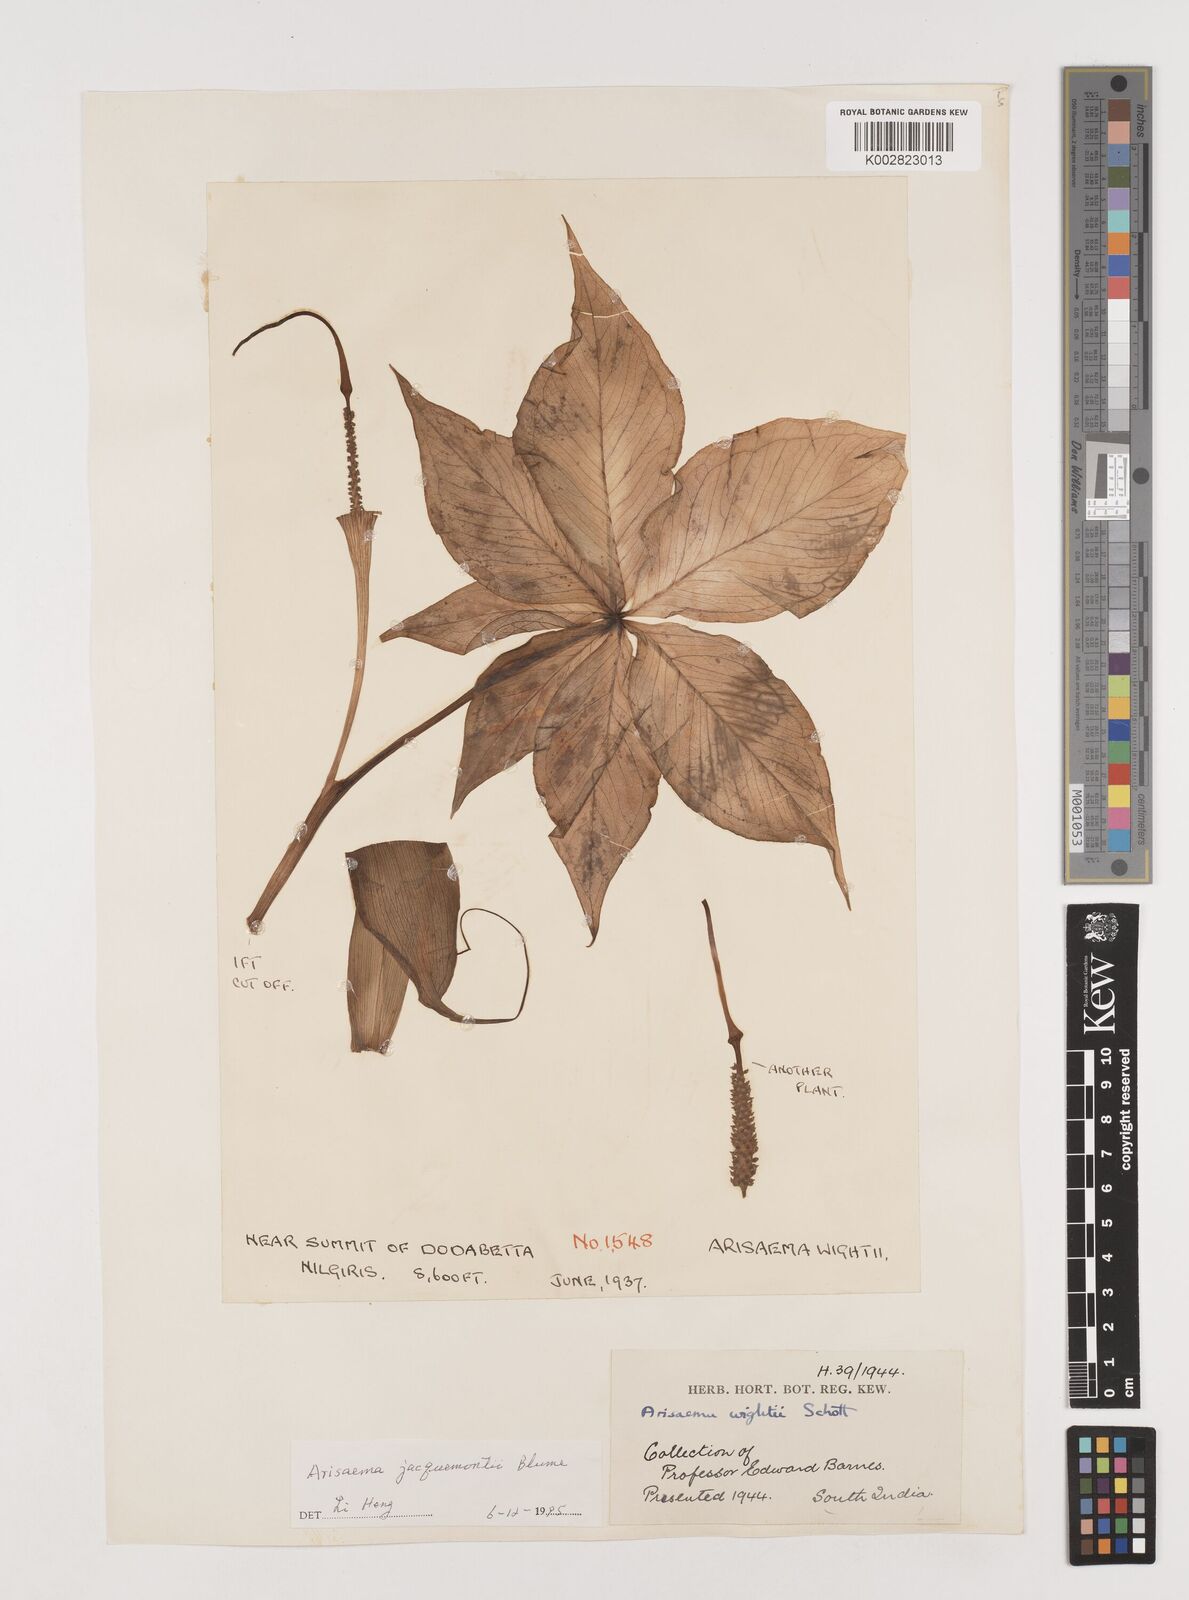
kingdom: Plantae
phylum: Tracheophyta
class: Liliopsida
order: Alismatales
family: Araceae
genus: Arisaema
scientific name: Arisaema jacquemontii
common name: Jacquemont's cobra-lily
